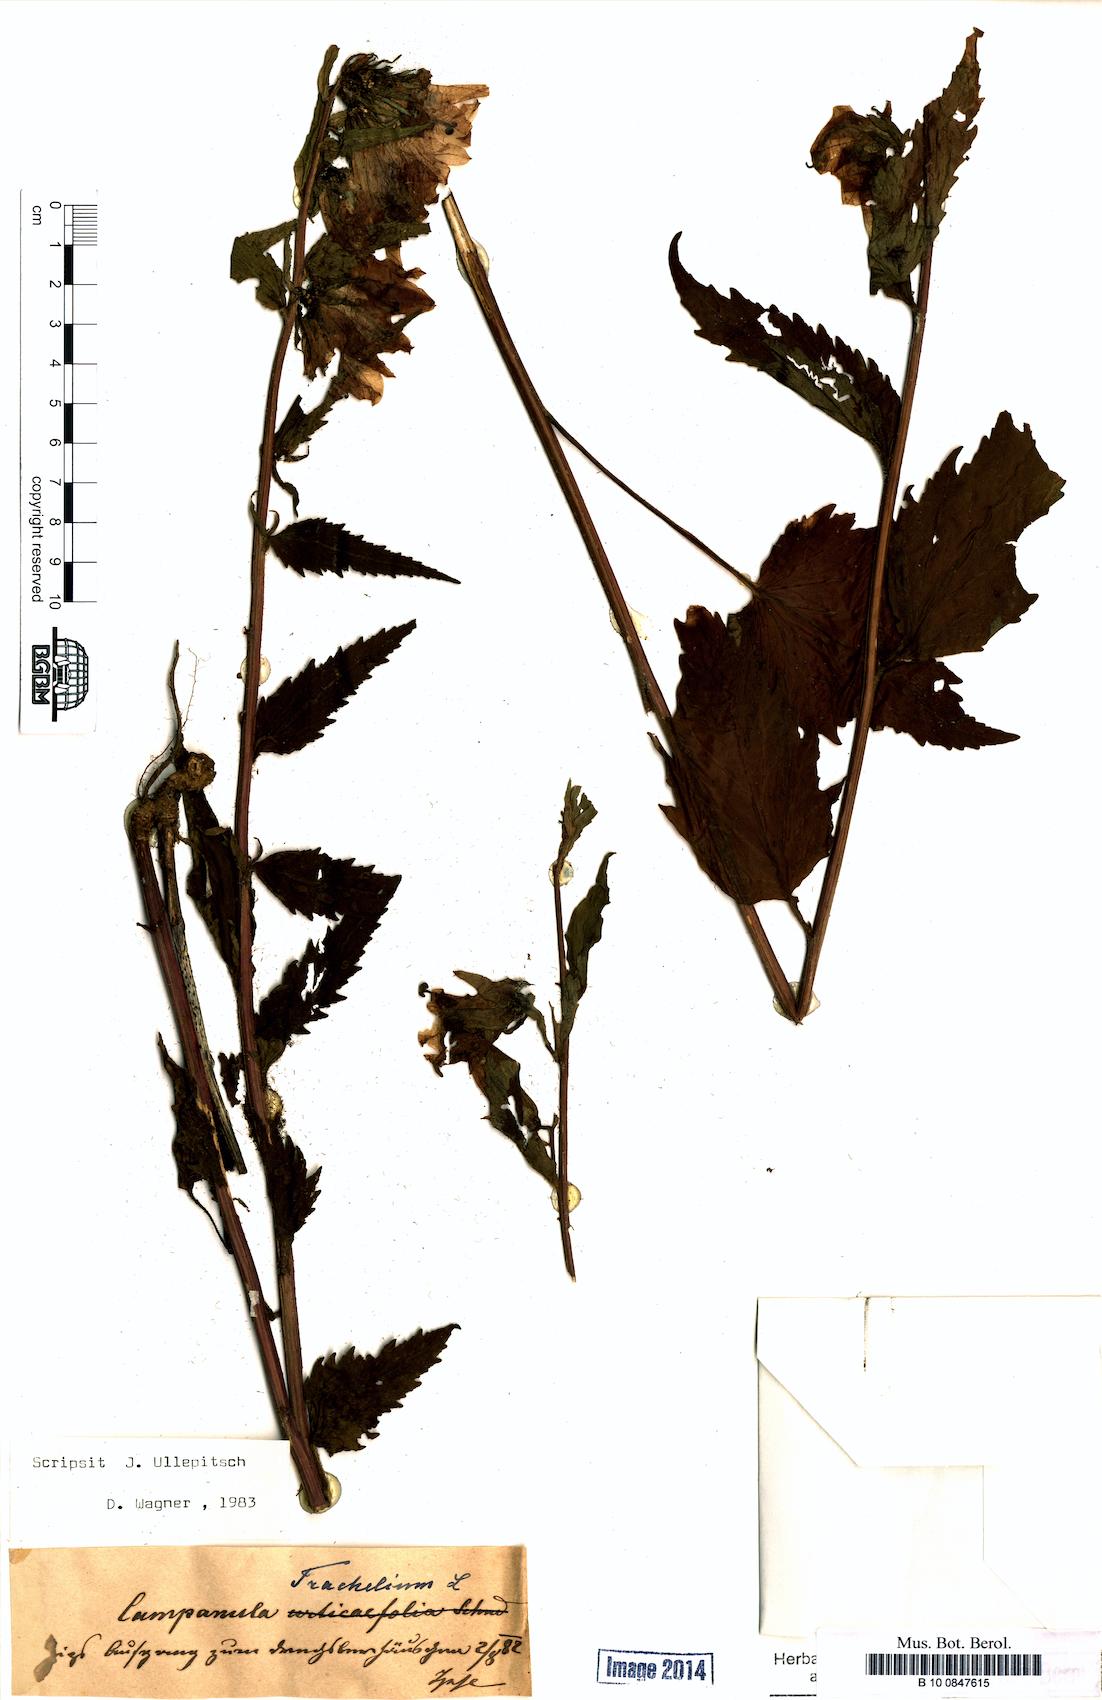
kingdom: Plantae
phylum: Tracheophyta
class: Magnoliopsida
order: Asterales
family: Campanulaceae
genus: Campanula
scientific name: Campanula trachelium
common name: Nettle-leaved bellflower
